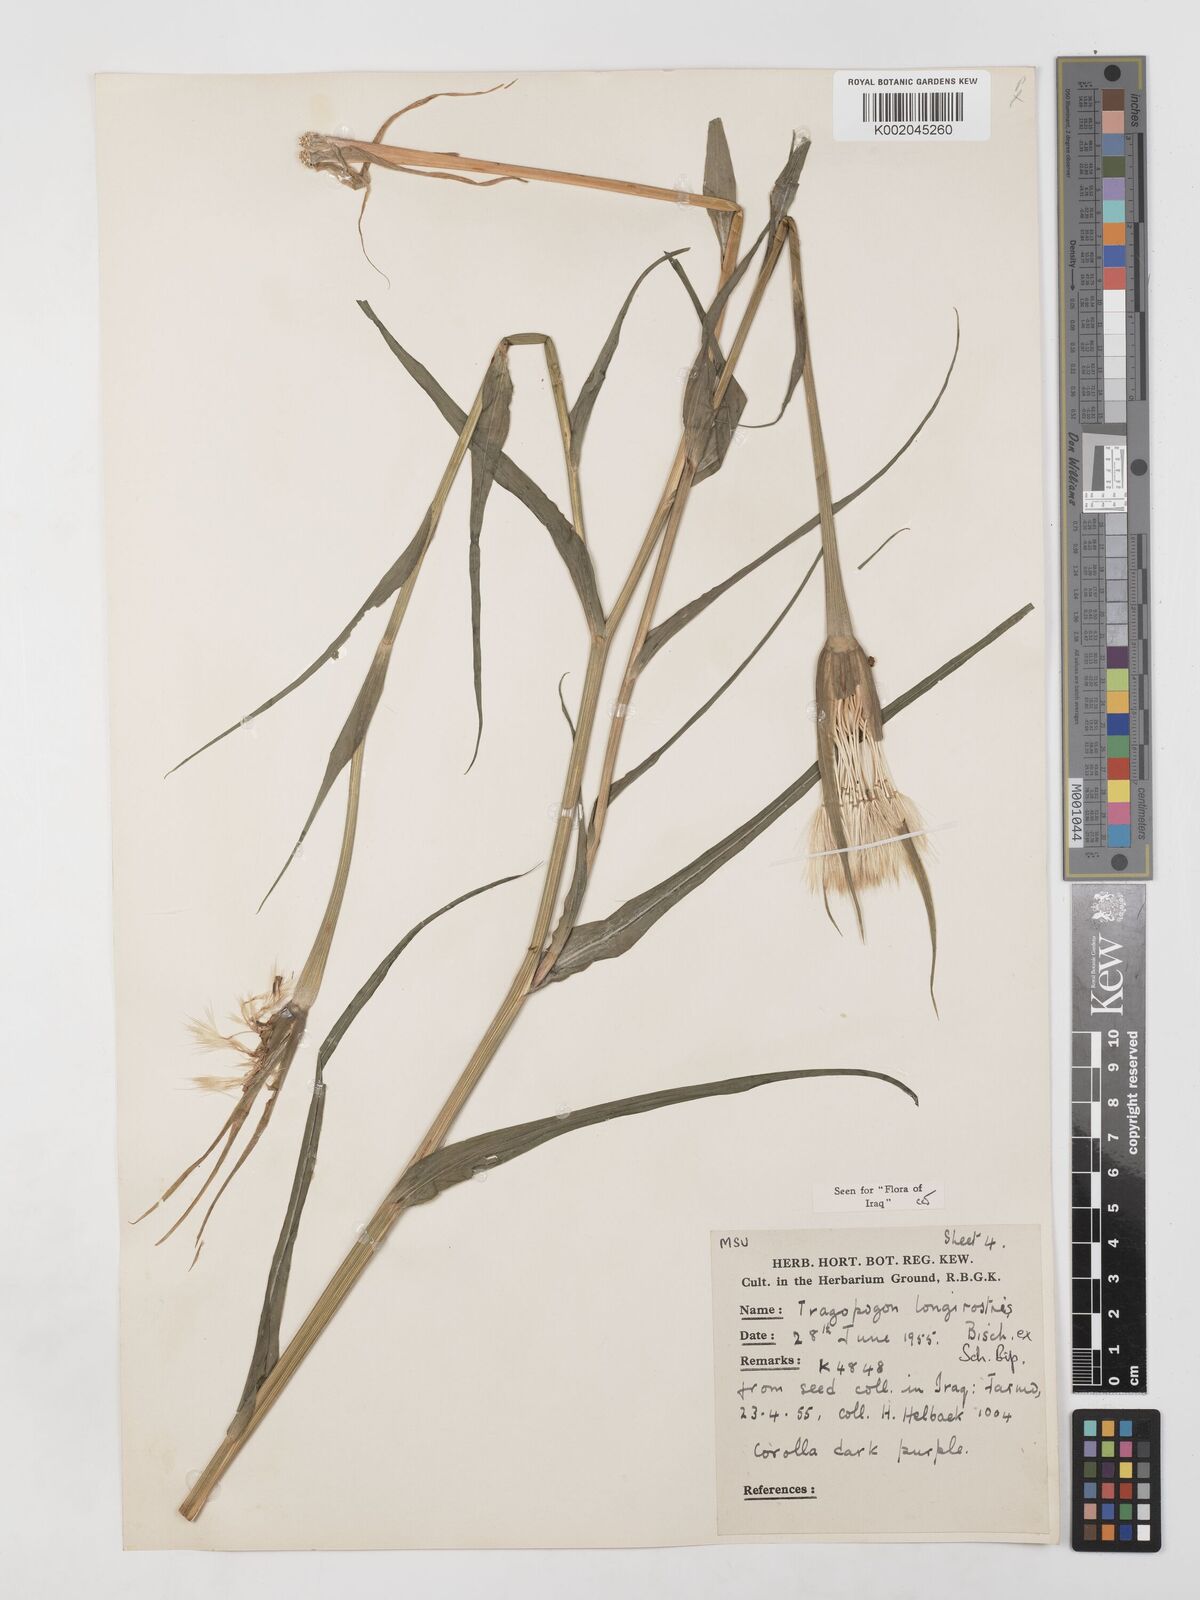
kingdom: Plantae
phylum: Tracheophyta
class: Magnoliopsida
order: Asterales
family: Asteraceae
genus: Tragopogon
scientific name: Tragopogon coelesyriacus
